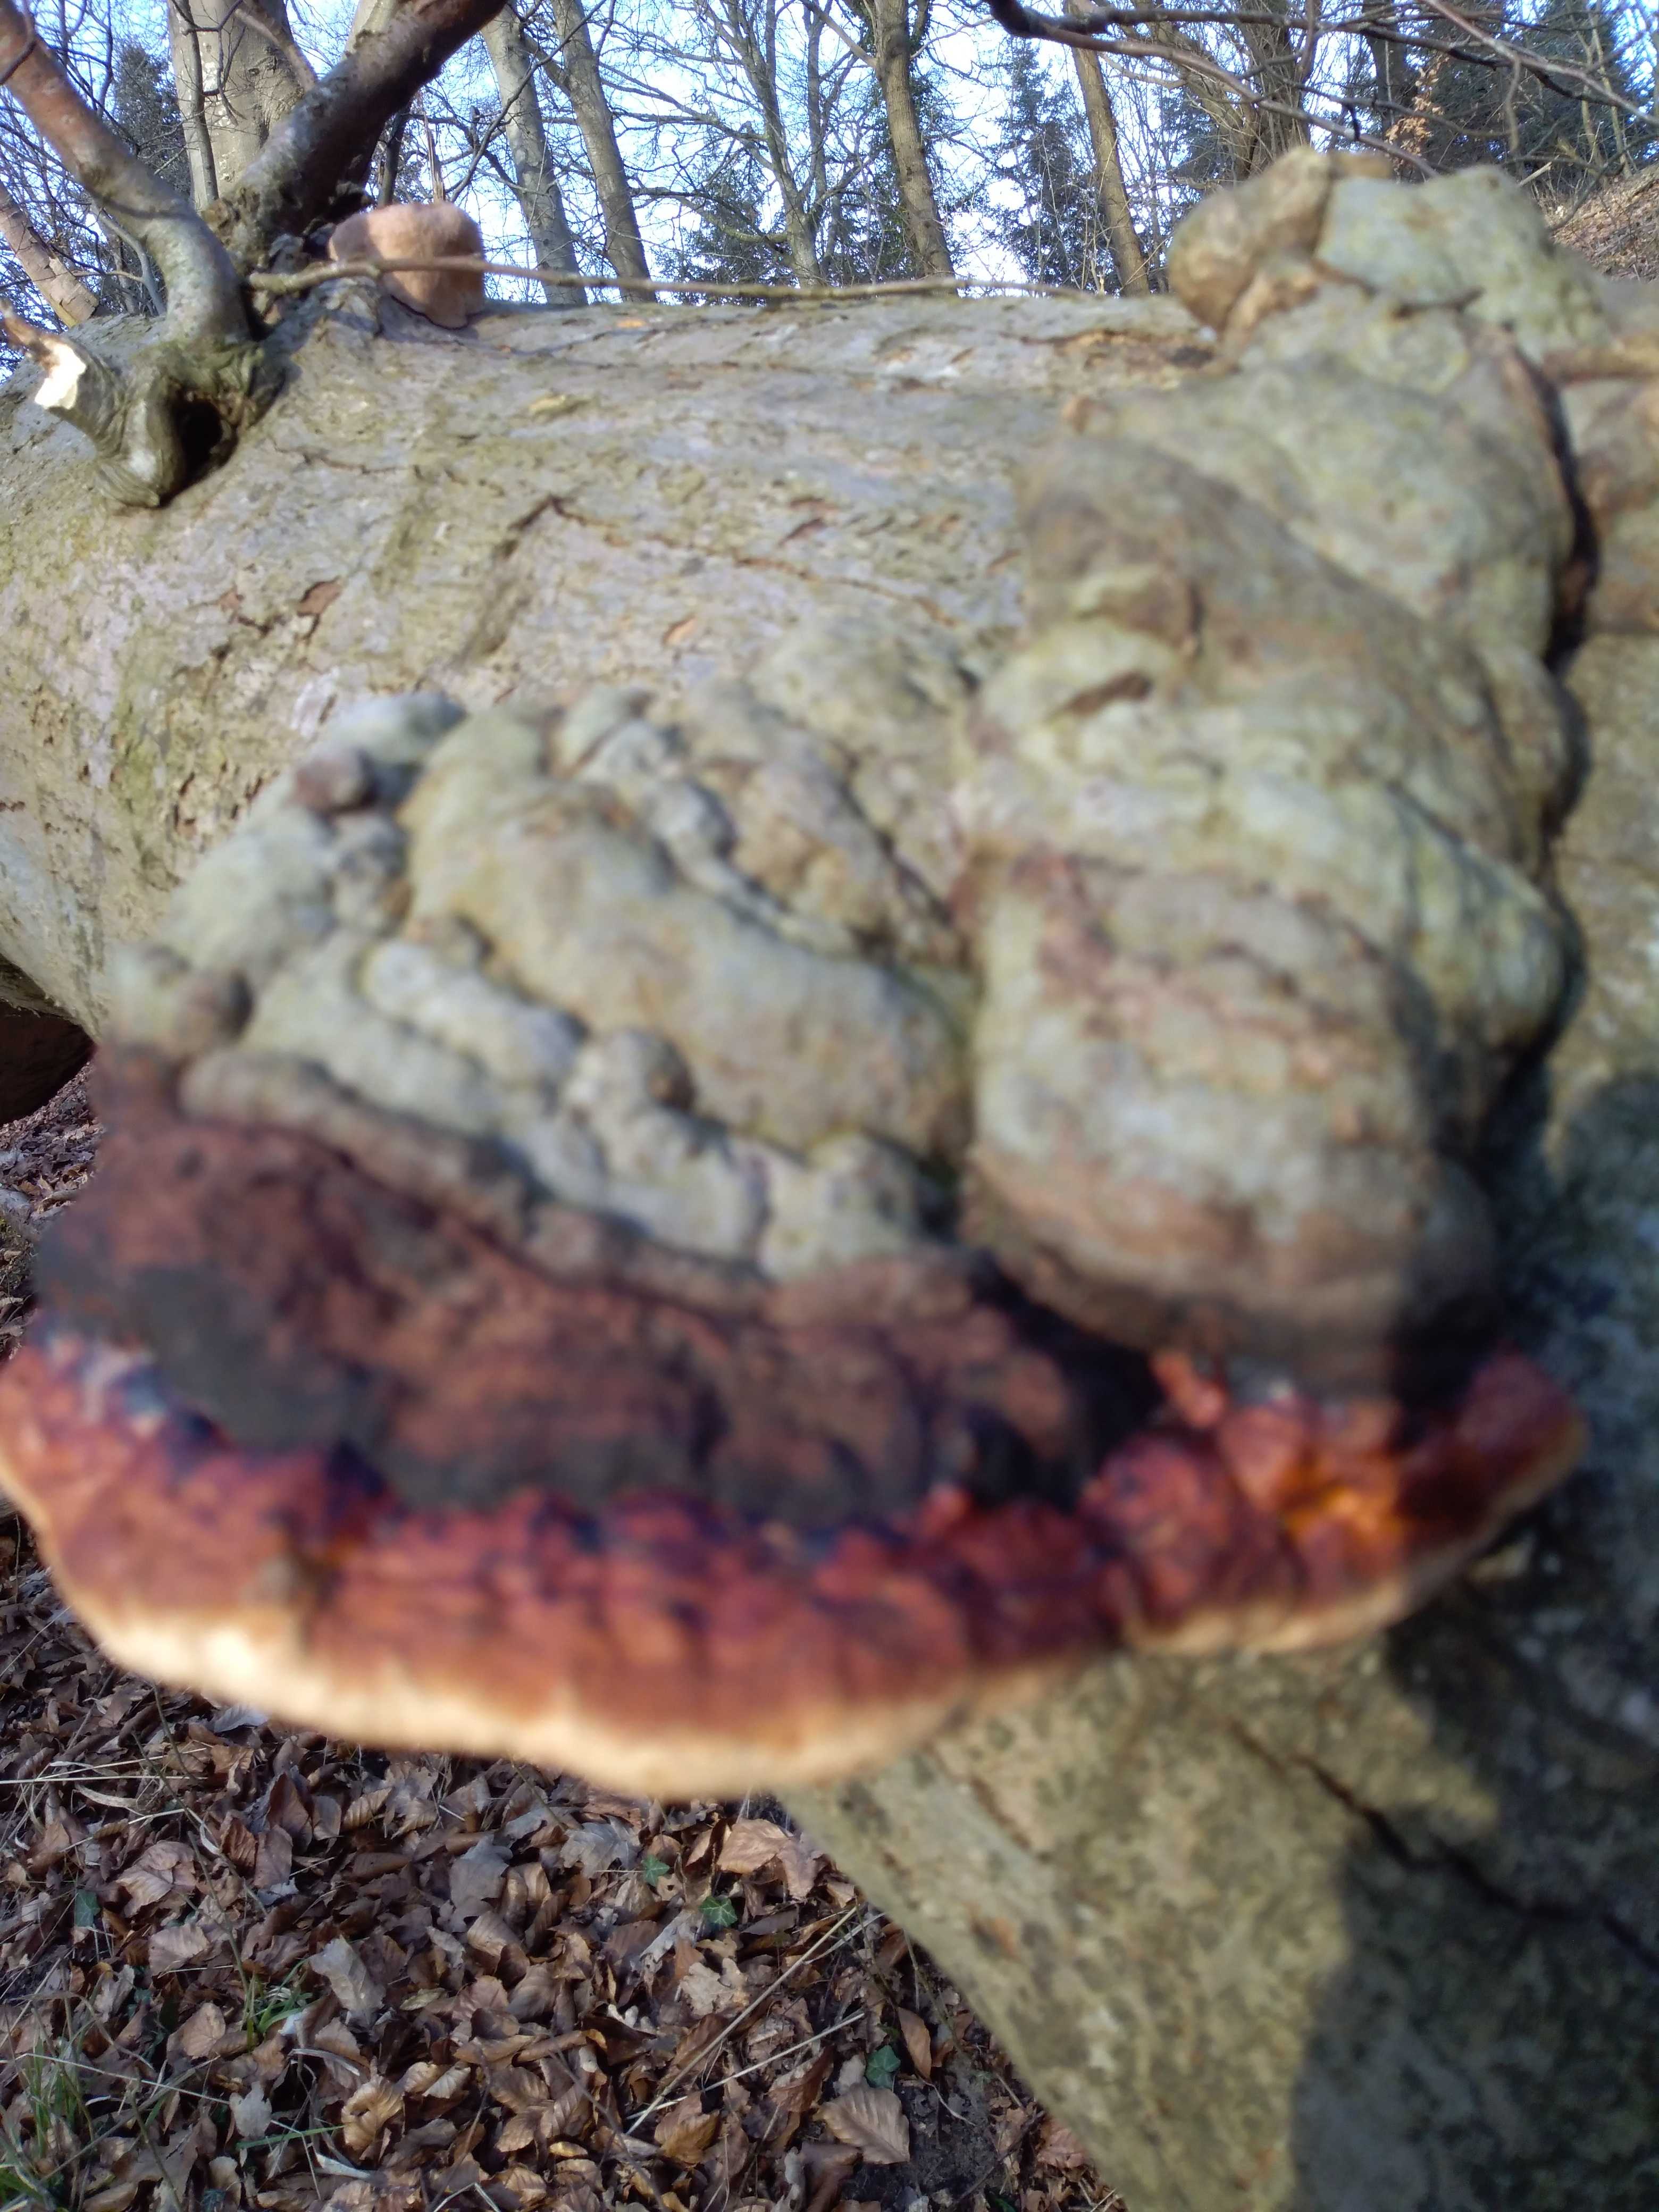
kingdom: Fungi
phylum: Basidiomycota
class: Agaricomycetes
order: Polyporales
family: Fomitopsidaceae
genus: Fomitopsis
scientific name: Fomitopsis pinicola
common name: randbæltet hovporesvamp
